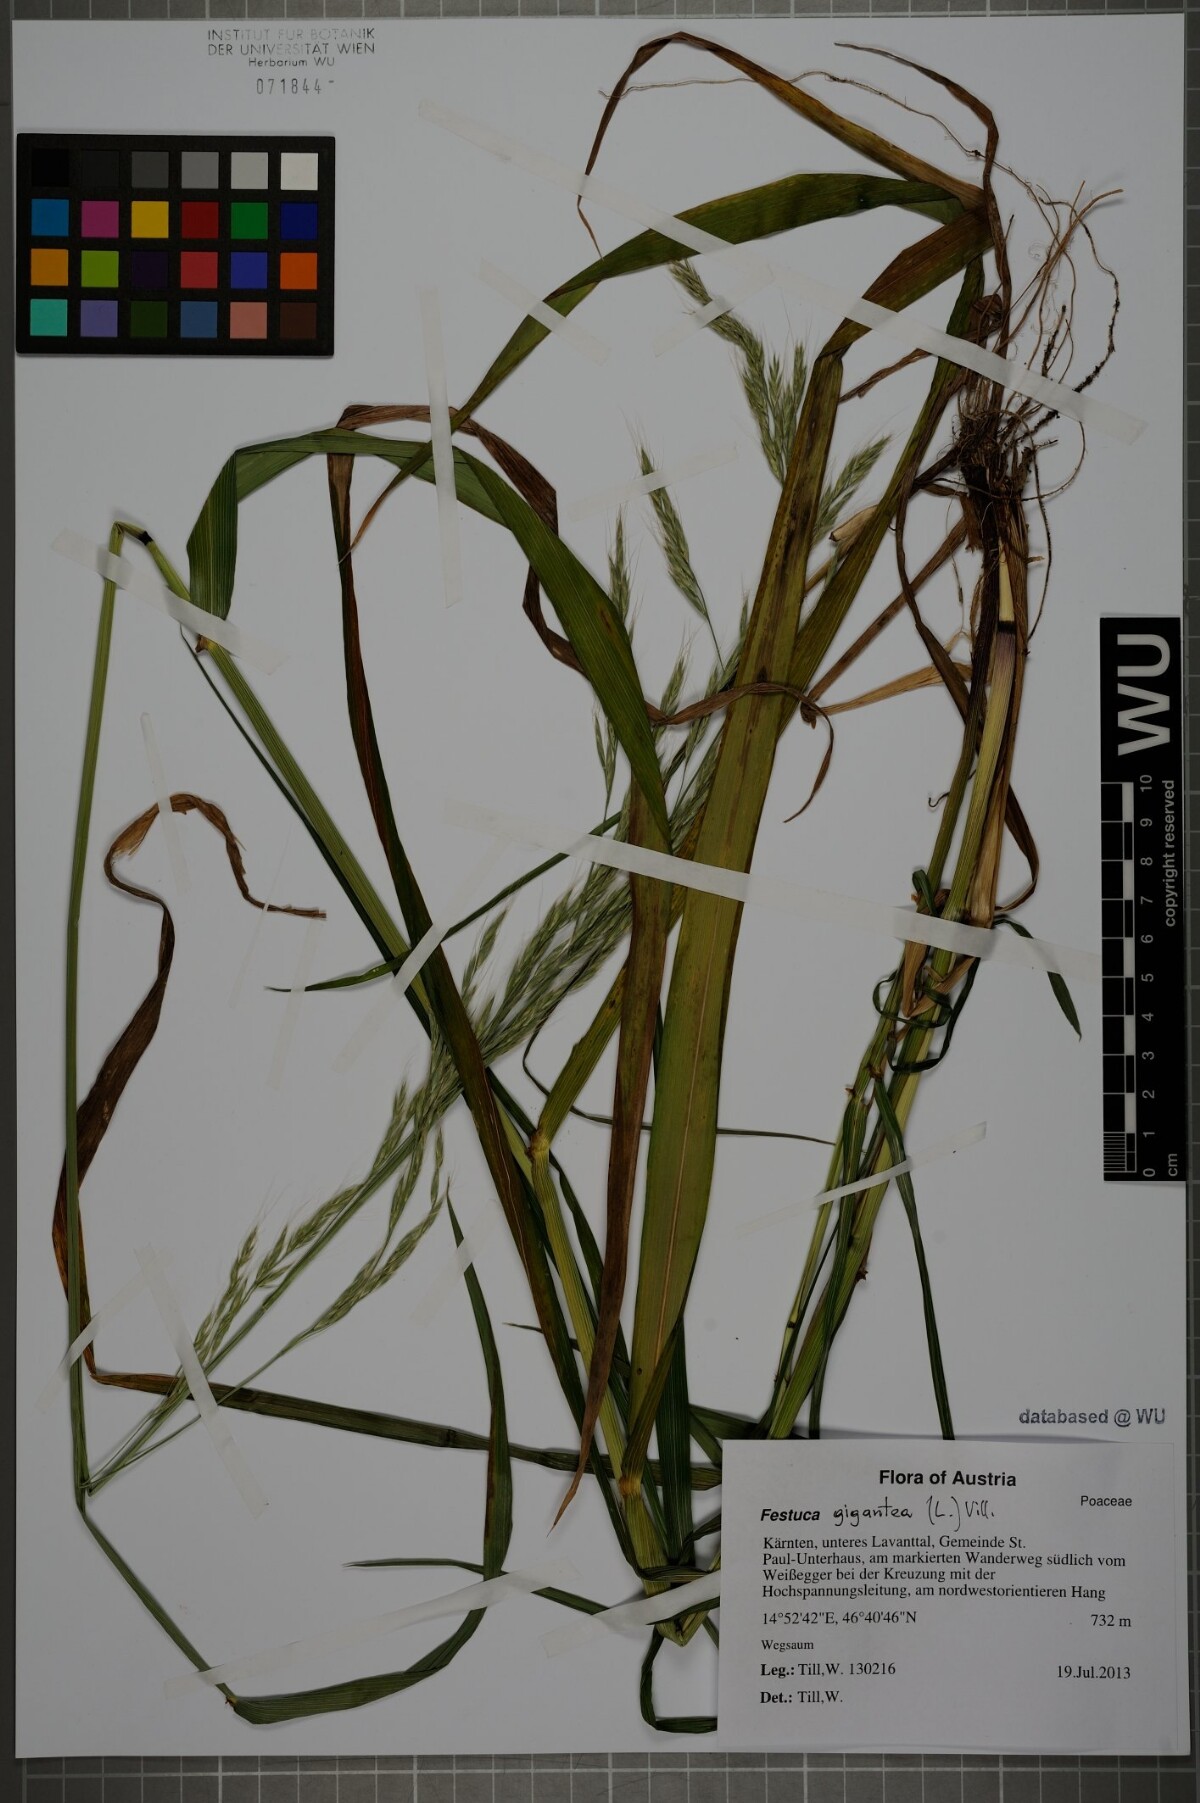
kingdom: Plantae
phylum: Tracheophyta
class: Liliopsida
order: Poales
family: Poaceae
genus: Lolium
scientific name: Lolium giganteum
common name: Giant fescue
